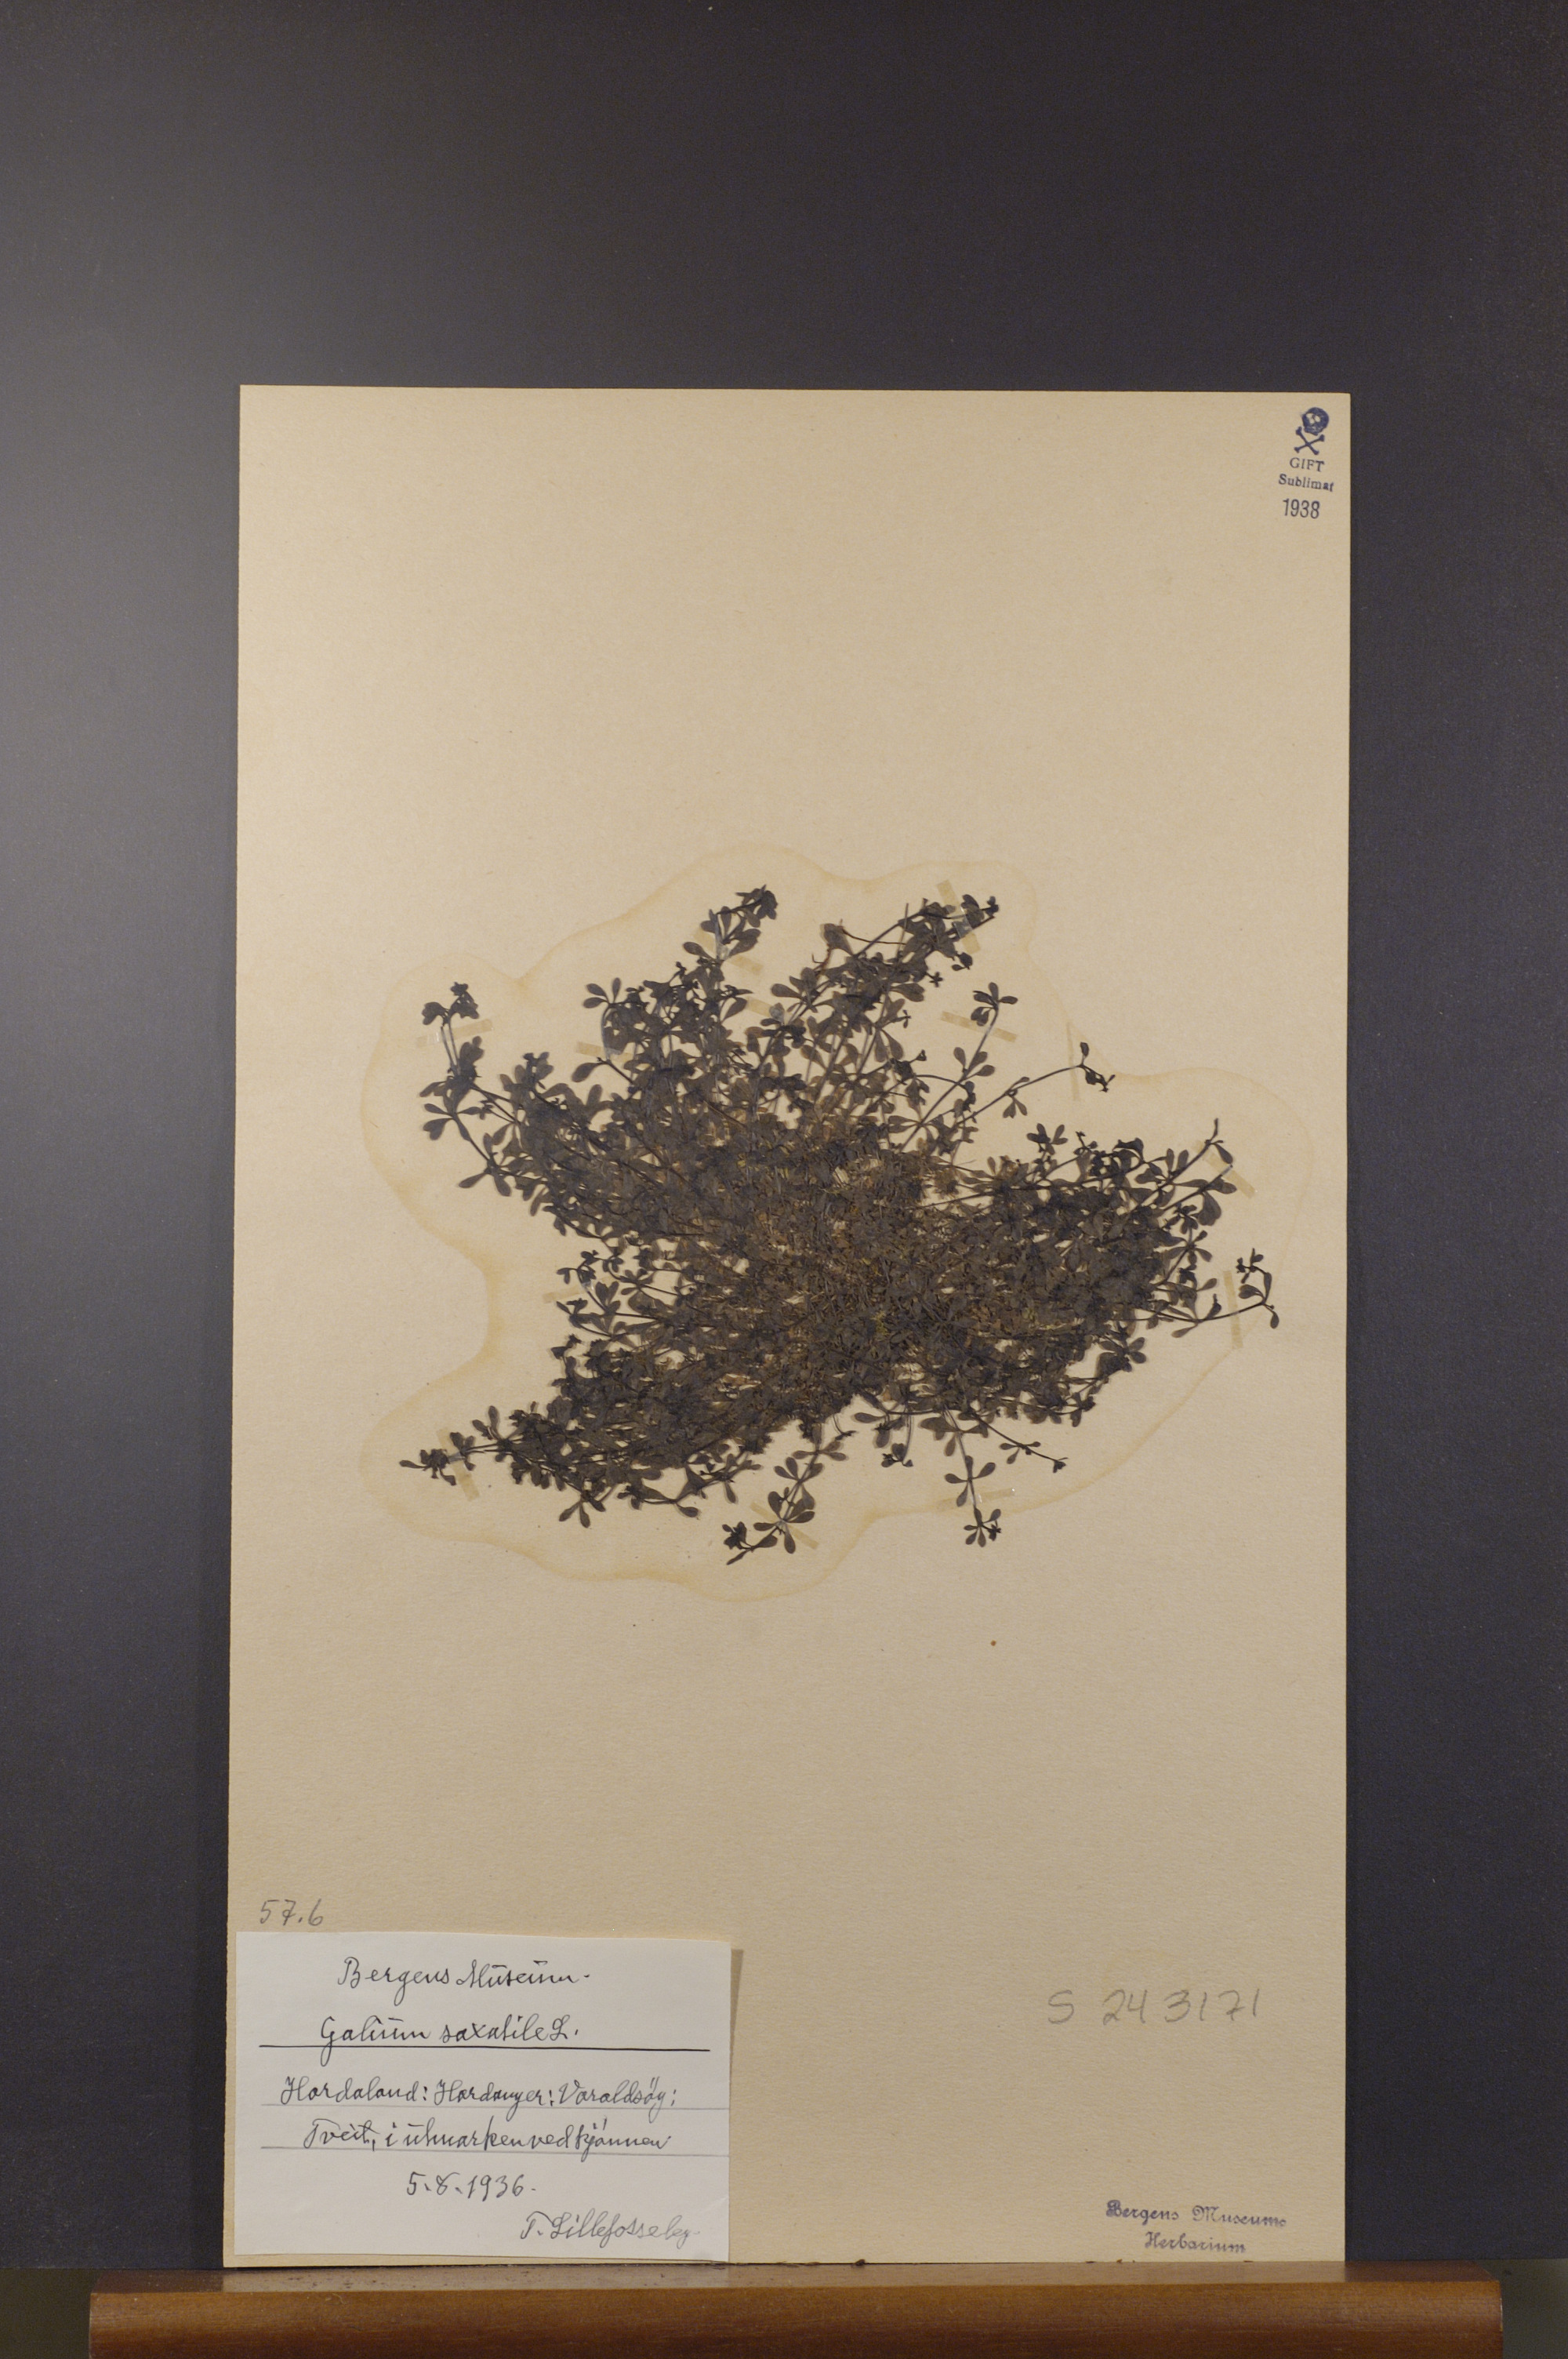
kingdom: Plantae
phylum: Tracheophyta
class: Magnoliopsida
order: Gentianales
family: Rubiaceae
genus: Galium
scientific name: Galium saxatile
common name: Heath bedstraw
